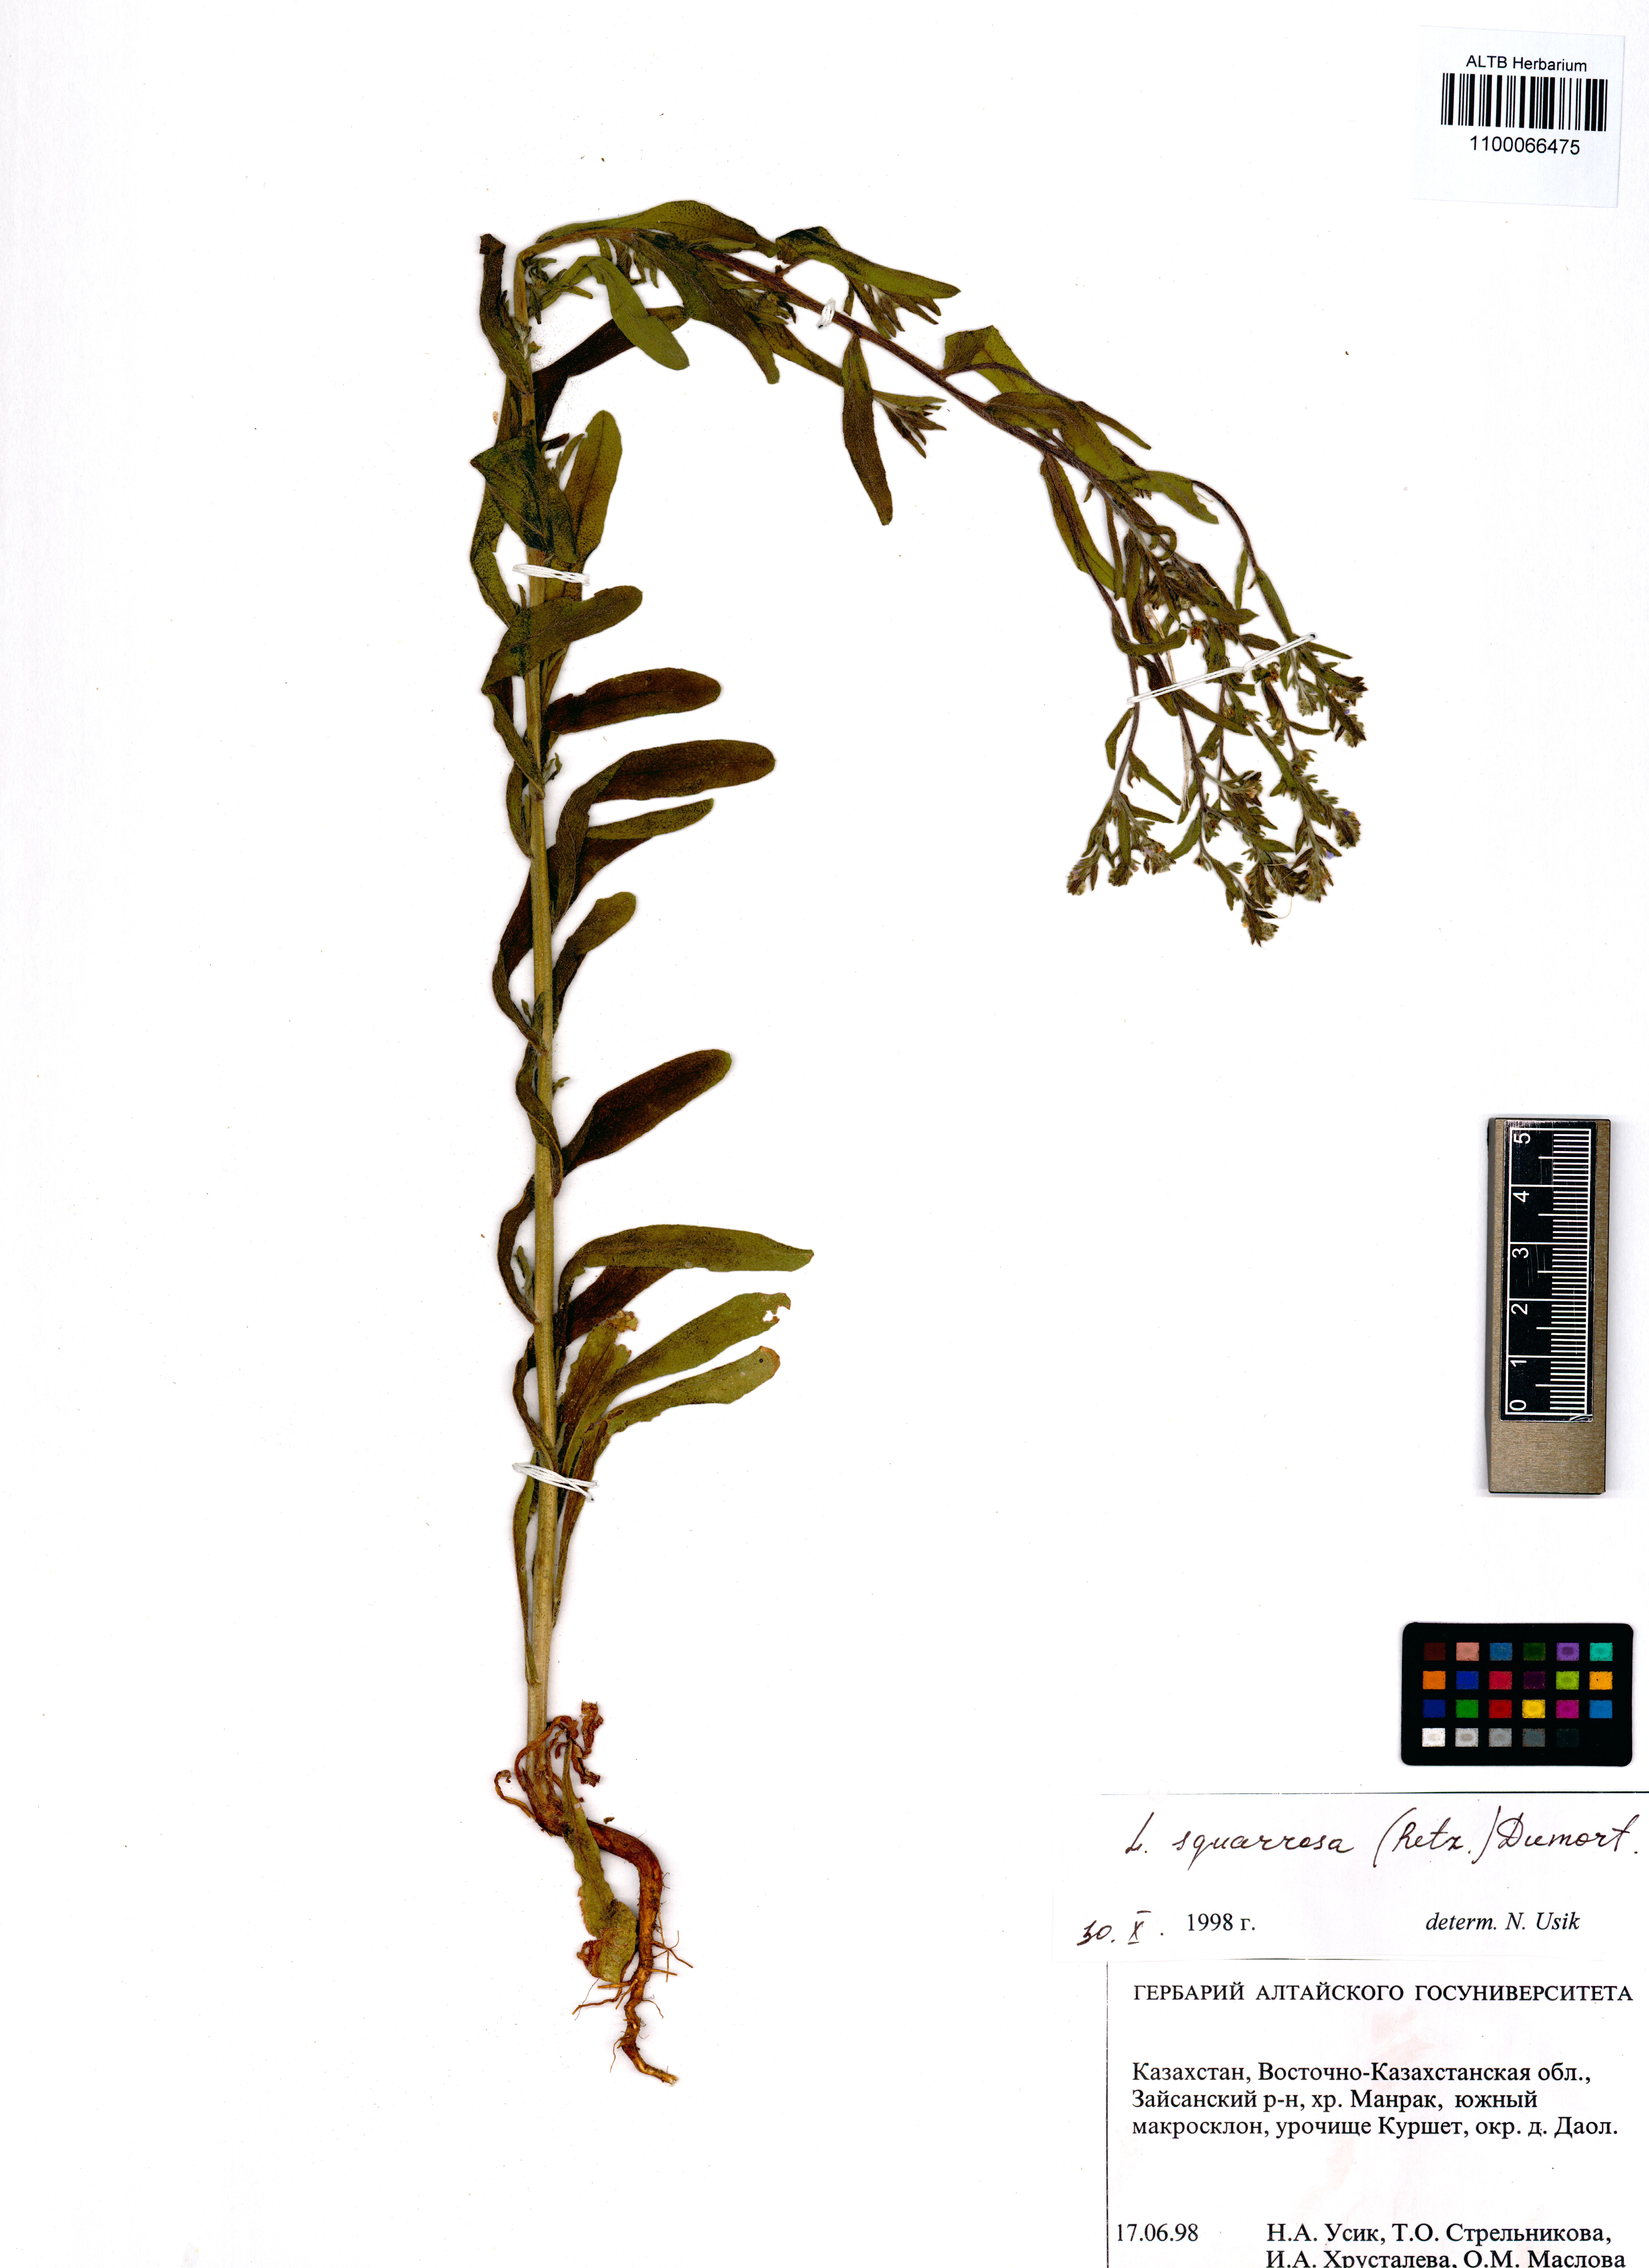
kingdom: Plantae
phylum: Tracheophyta
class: Magnoliopsida
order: Boraginales
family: Boraginaceae
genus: Lappula
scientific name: Lappula squarrosa
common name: European stickseed
